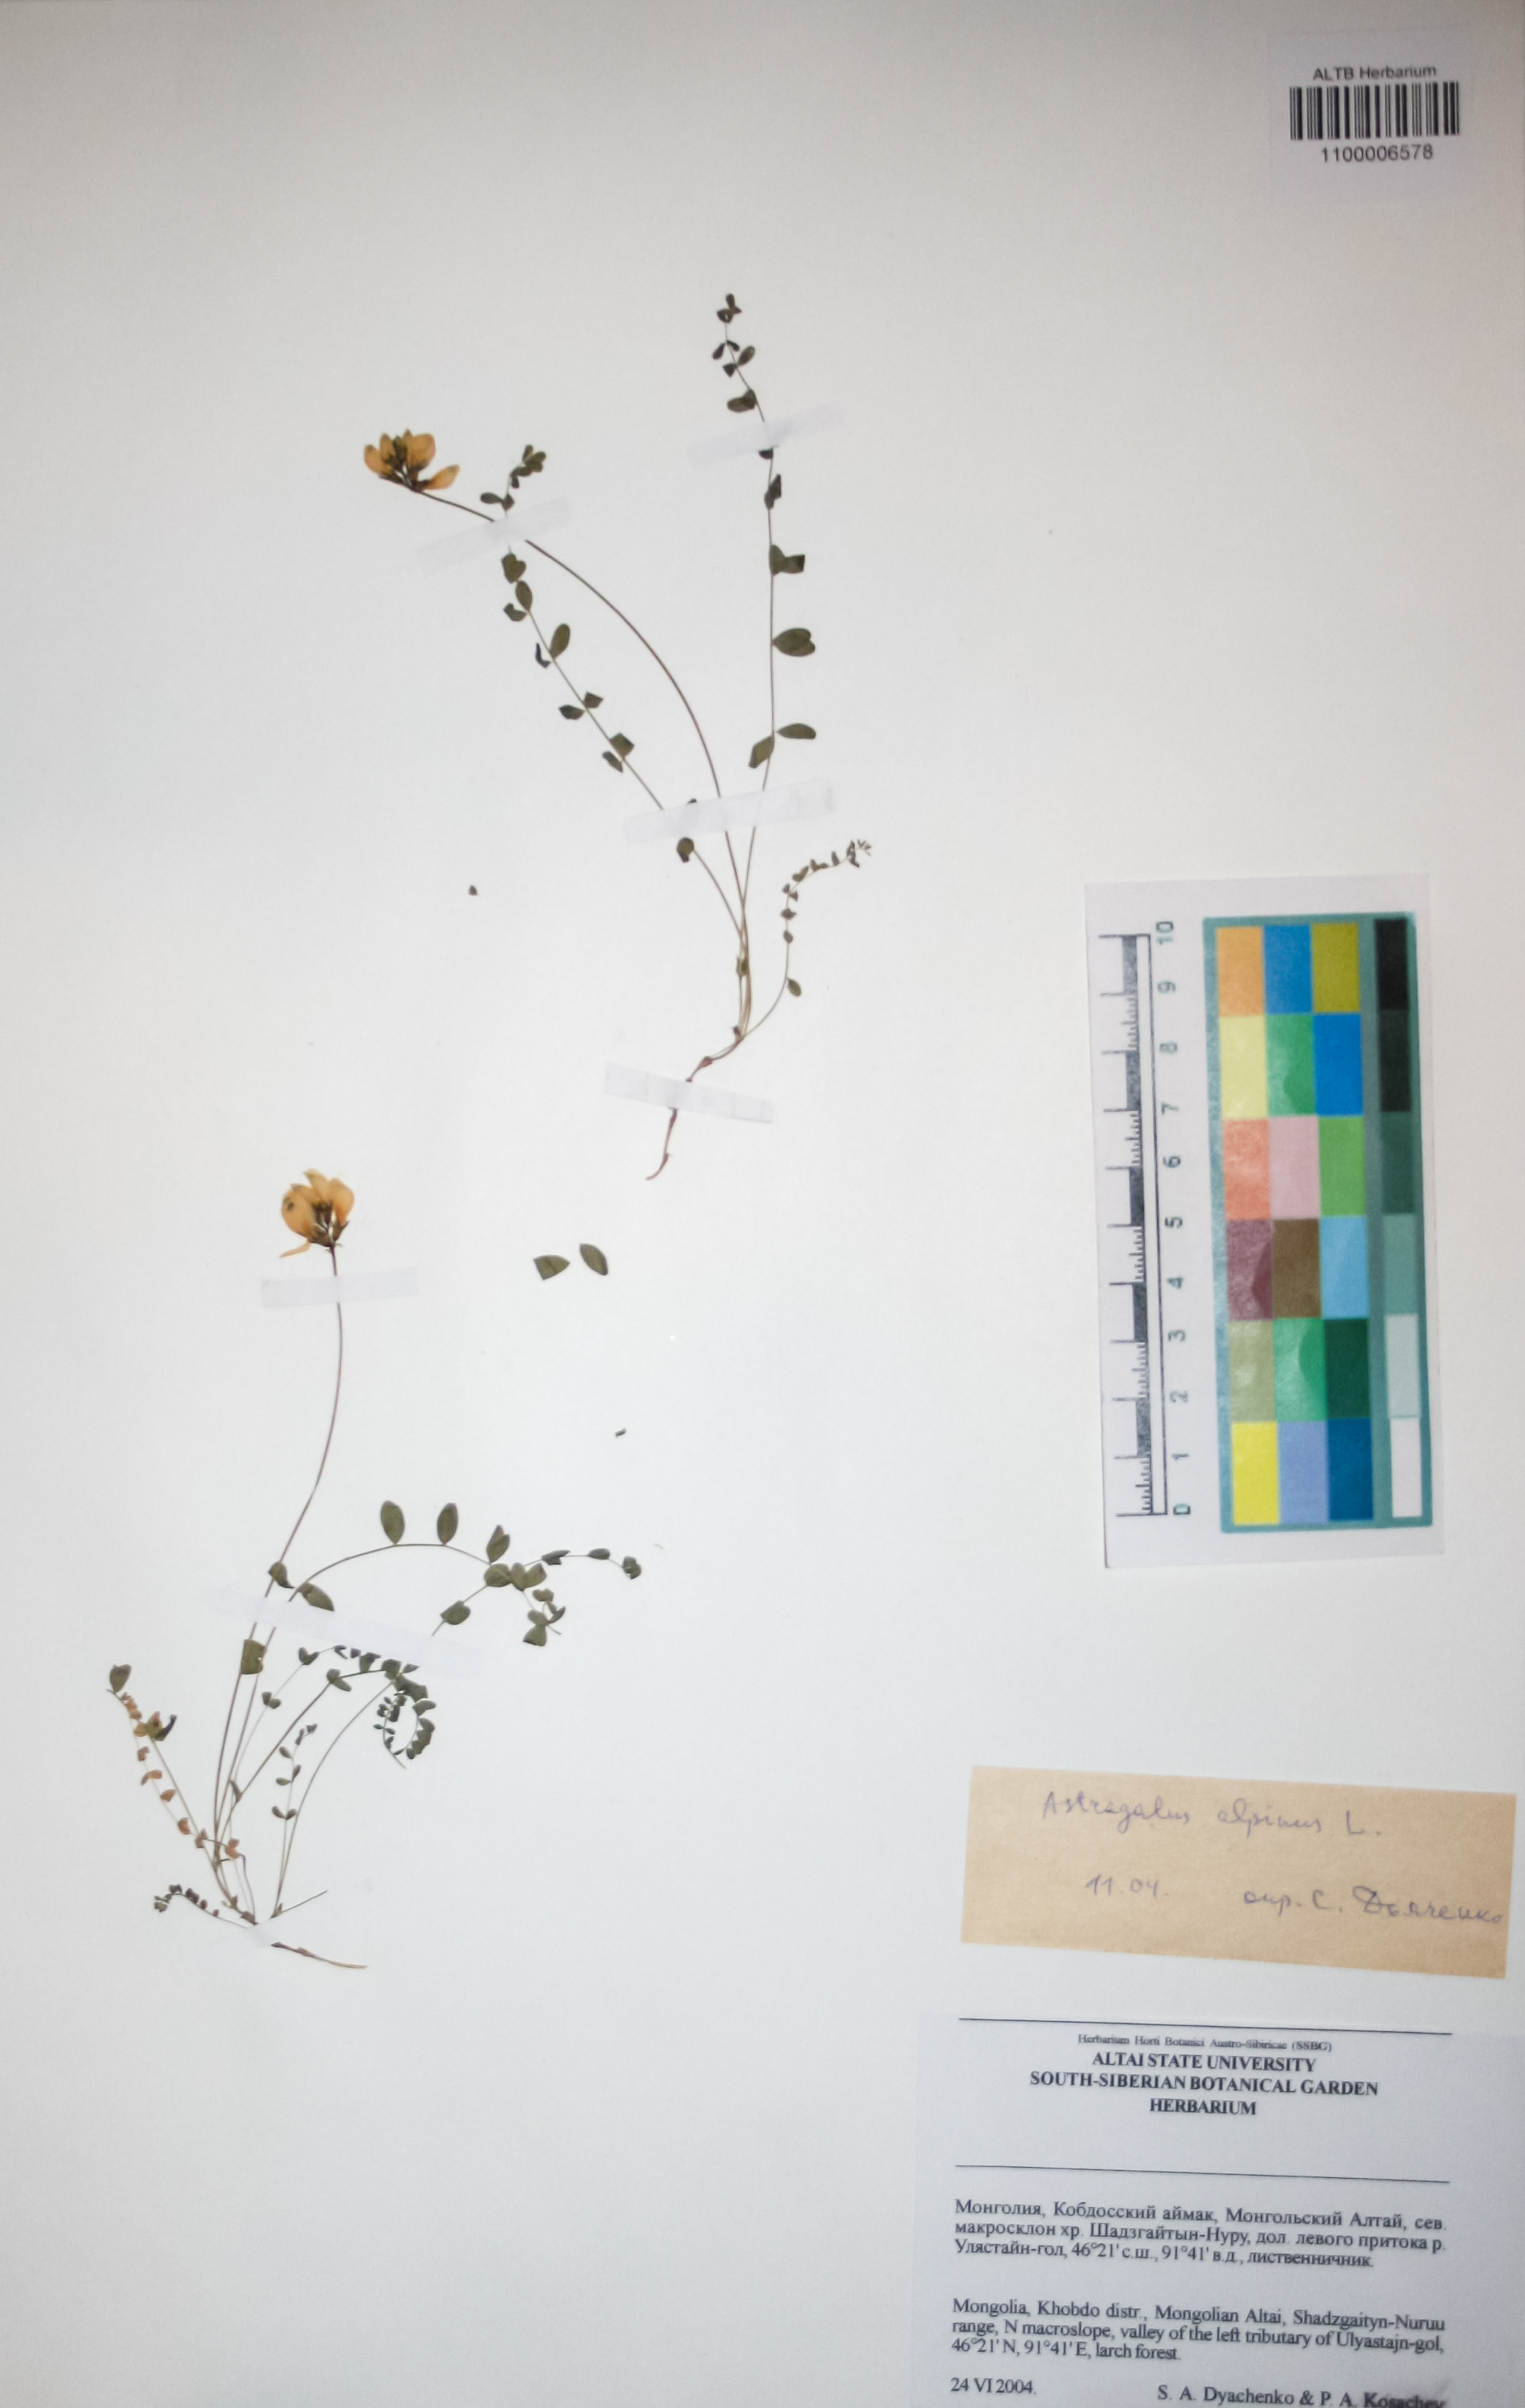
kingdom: Plantae
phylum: Tracheophyta
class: Magnoliopsida
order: Fabales
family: Fabaceae
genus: Astragalus
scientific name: Astragalus alpinus
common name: Alpine milk-vetch
